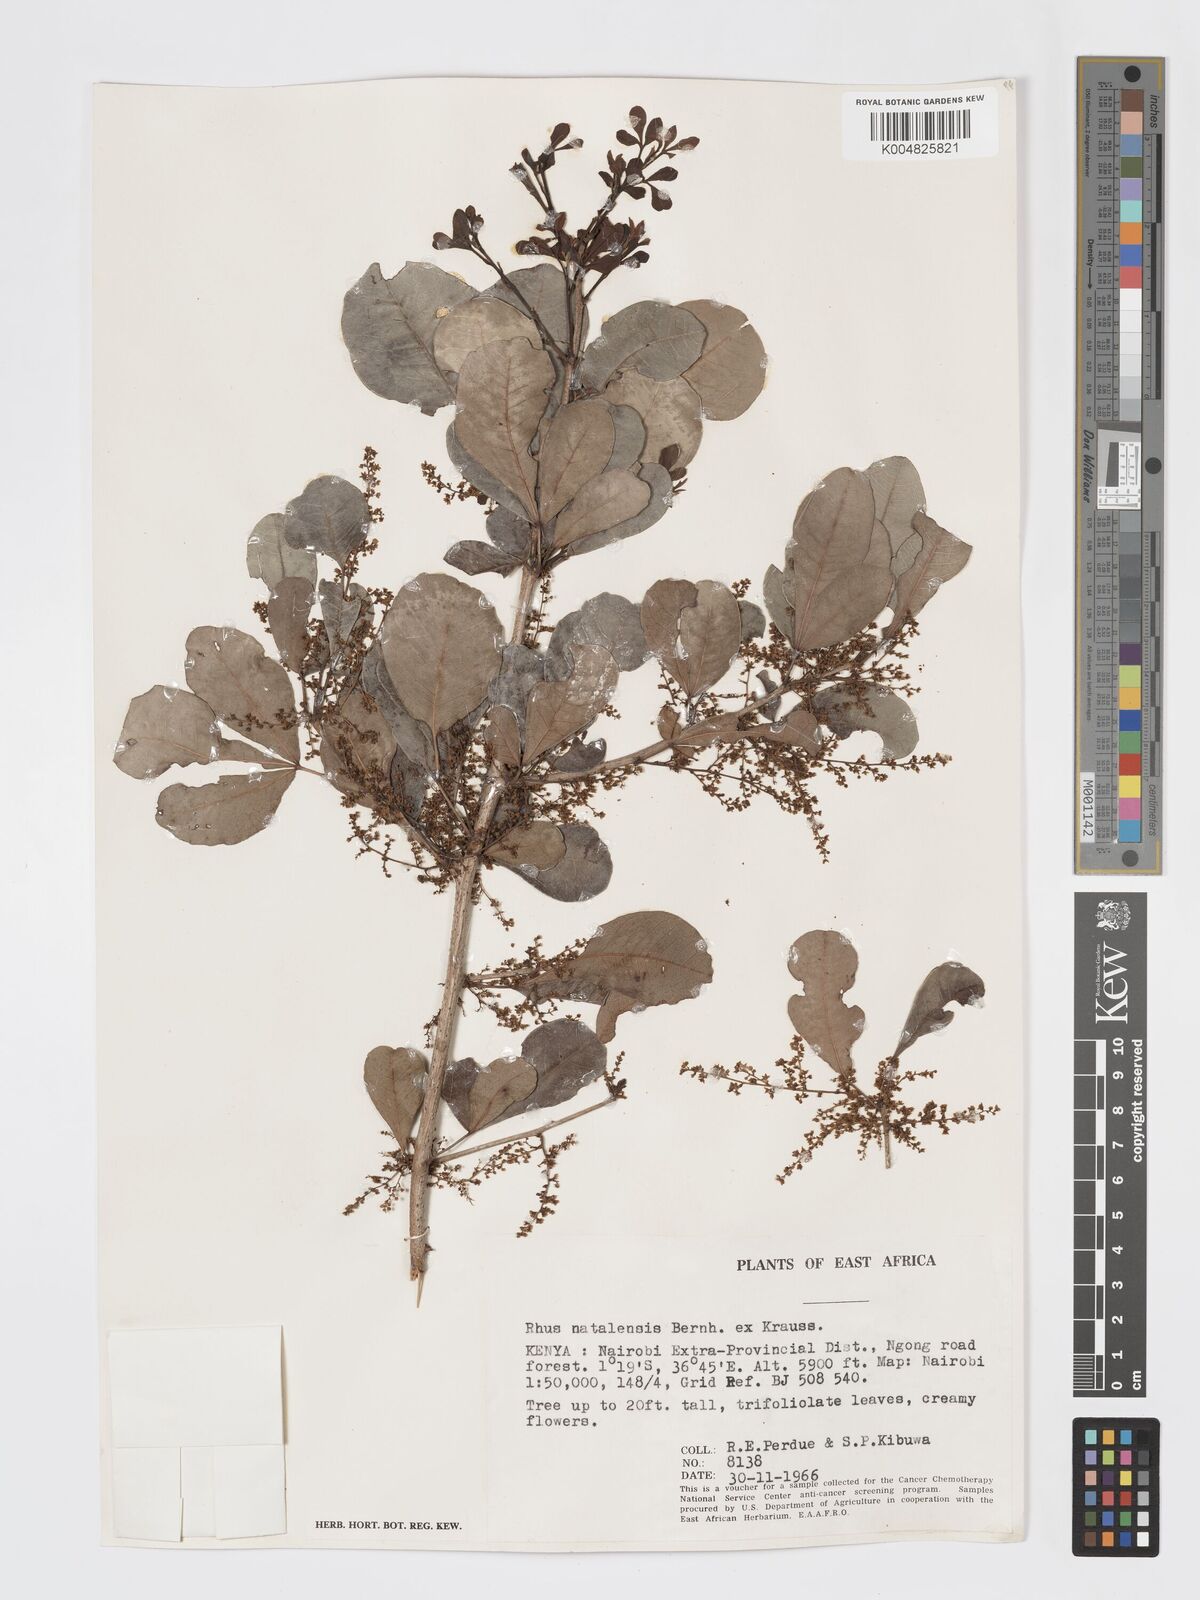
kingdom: Plantae
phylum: Tracheophyta
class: Magnoliopsida
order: Sapindales
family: Anacardiaceae
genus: Searsia
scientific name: Searsia natalensis
